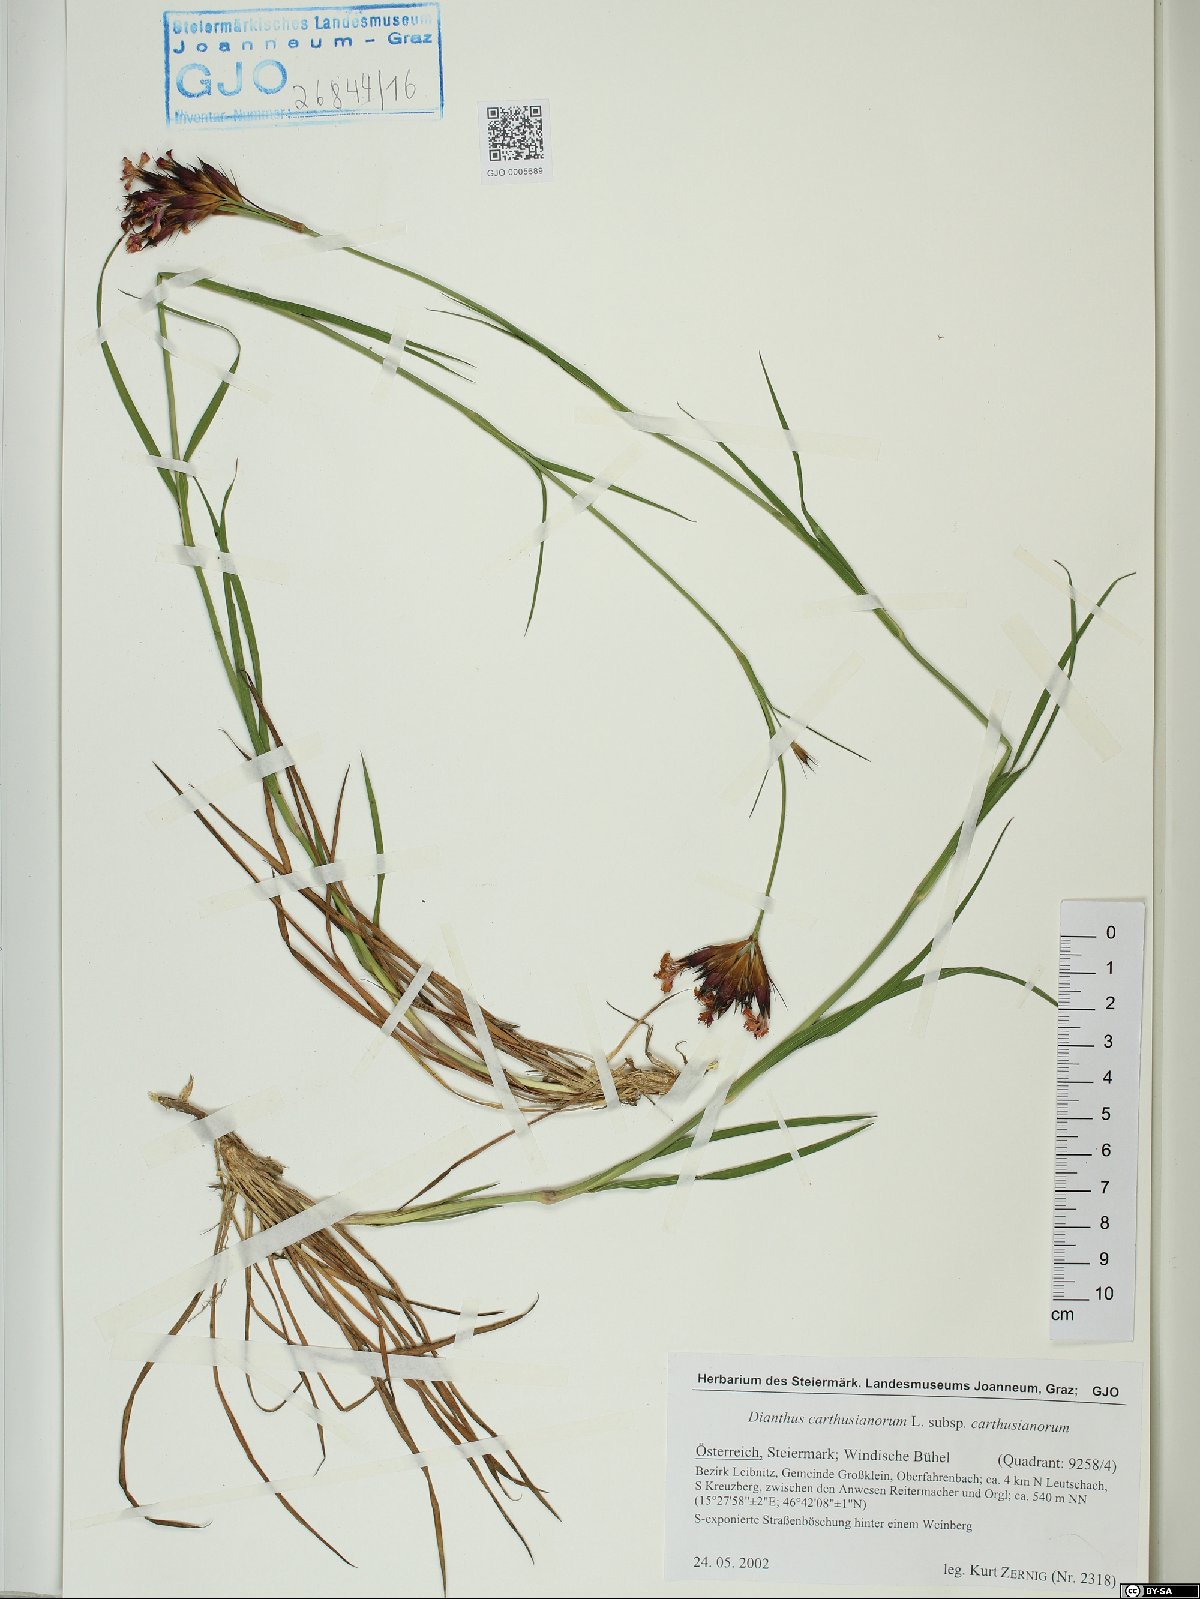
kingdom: Plantae
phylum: Tracheophyta
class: Magnoliopsida
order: Caryophyllales
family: Caryophyllaceae
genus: Dianthus
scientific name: Dianthus carthusianorum
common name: Carthusian pink
